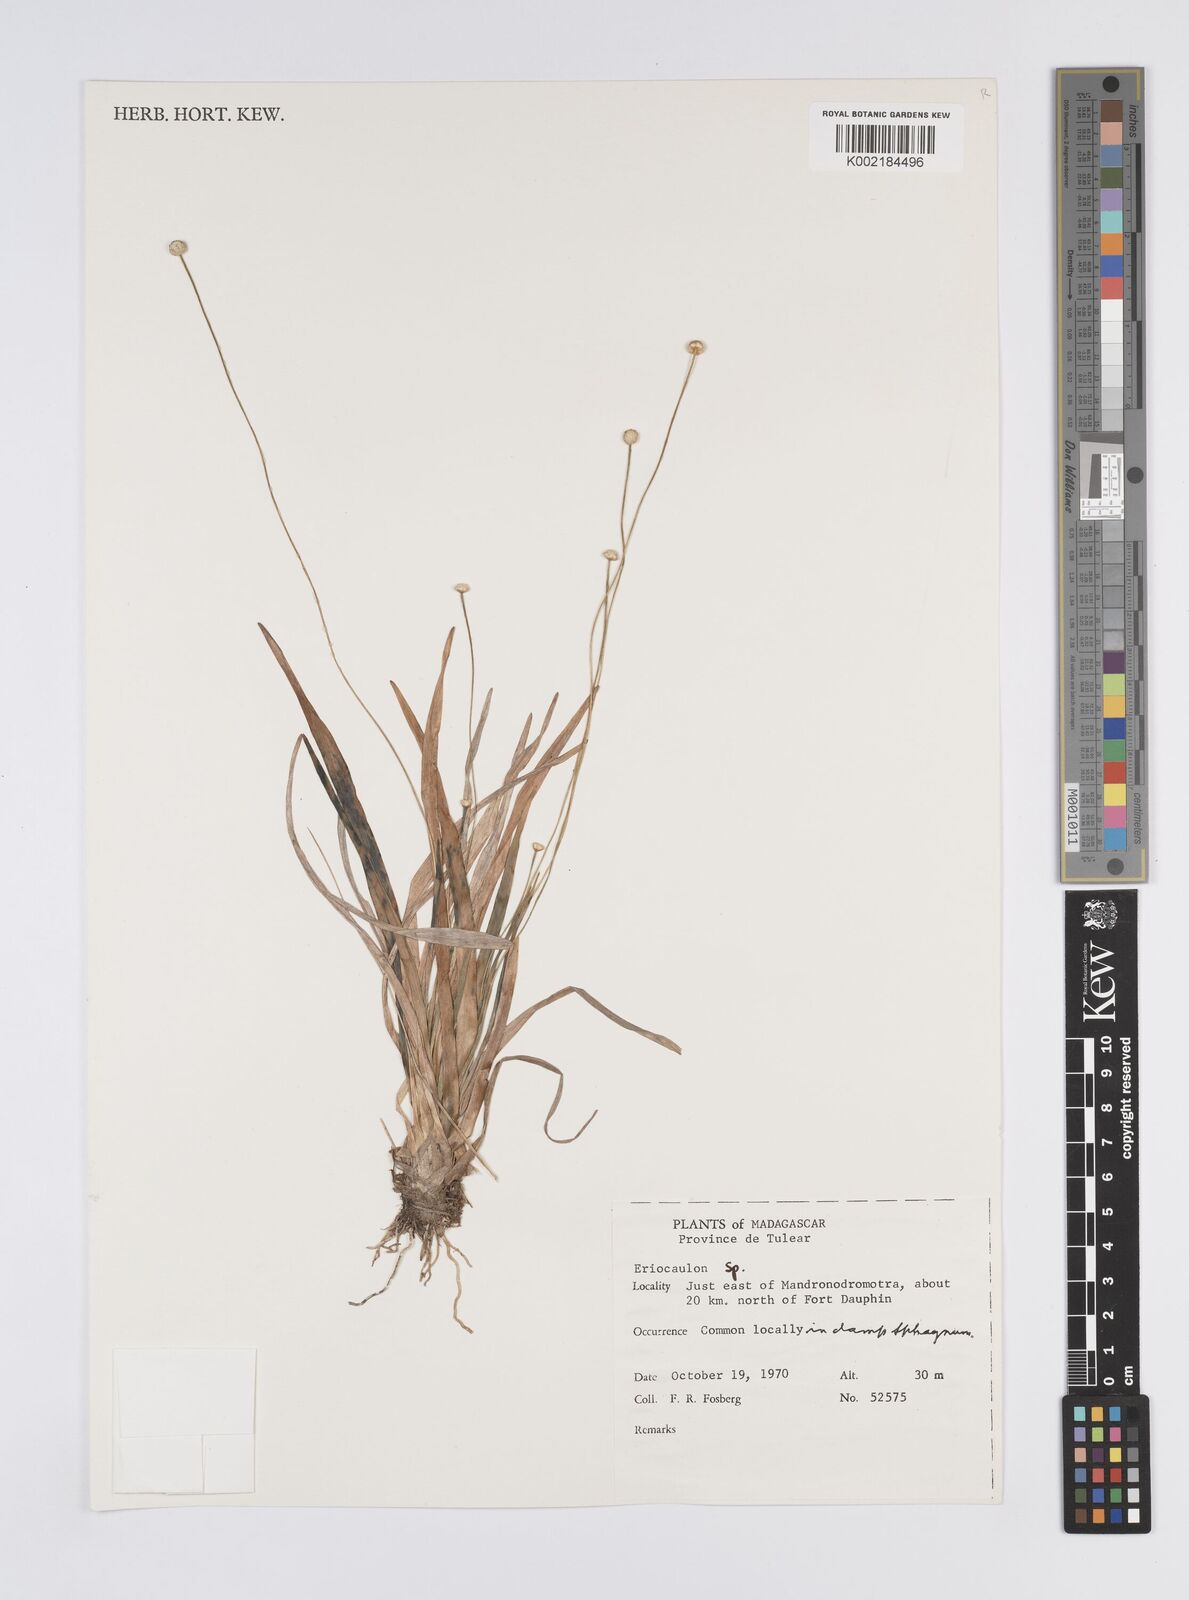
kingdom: Plantae
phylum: Tracheophyta
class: Liliopsida
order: Poales
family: Eriocaulaceae
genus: Eriocaulon
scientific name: Eriocaulon
